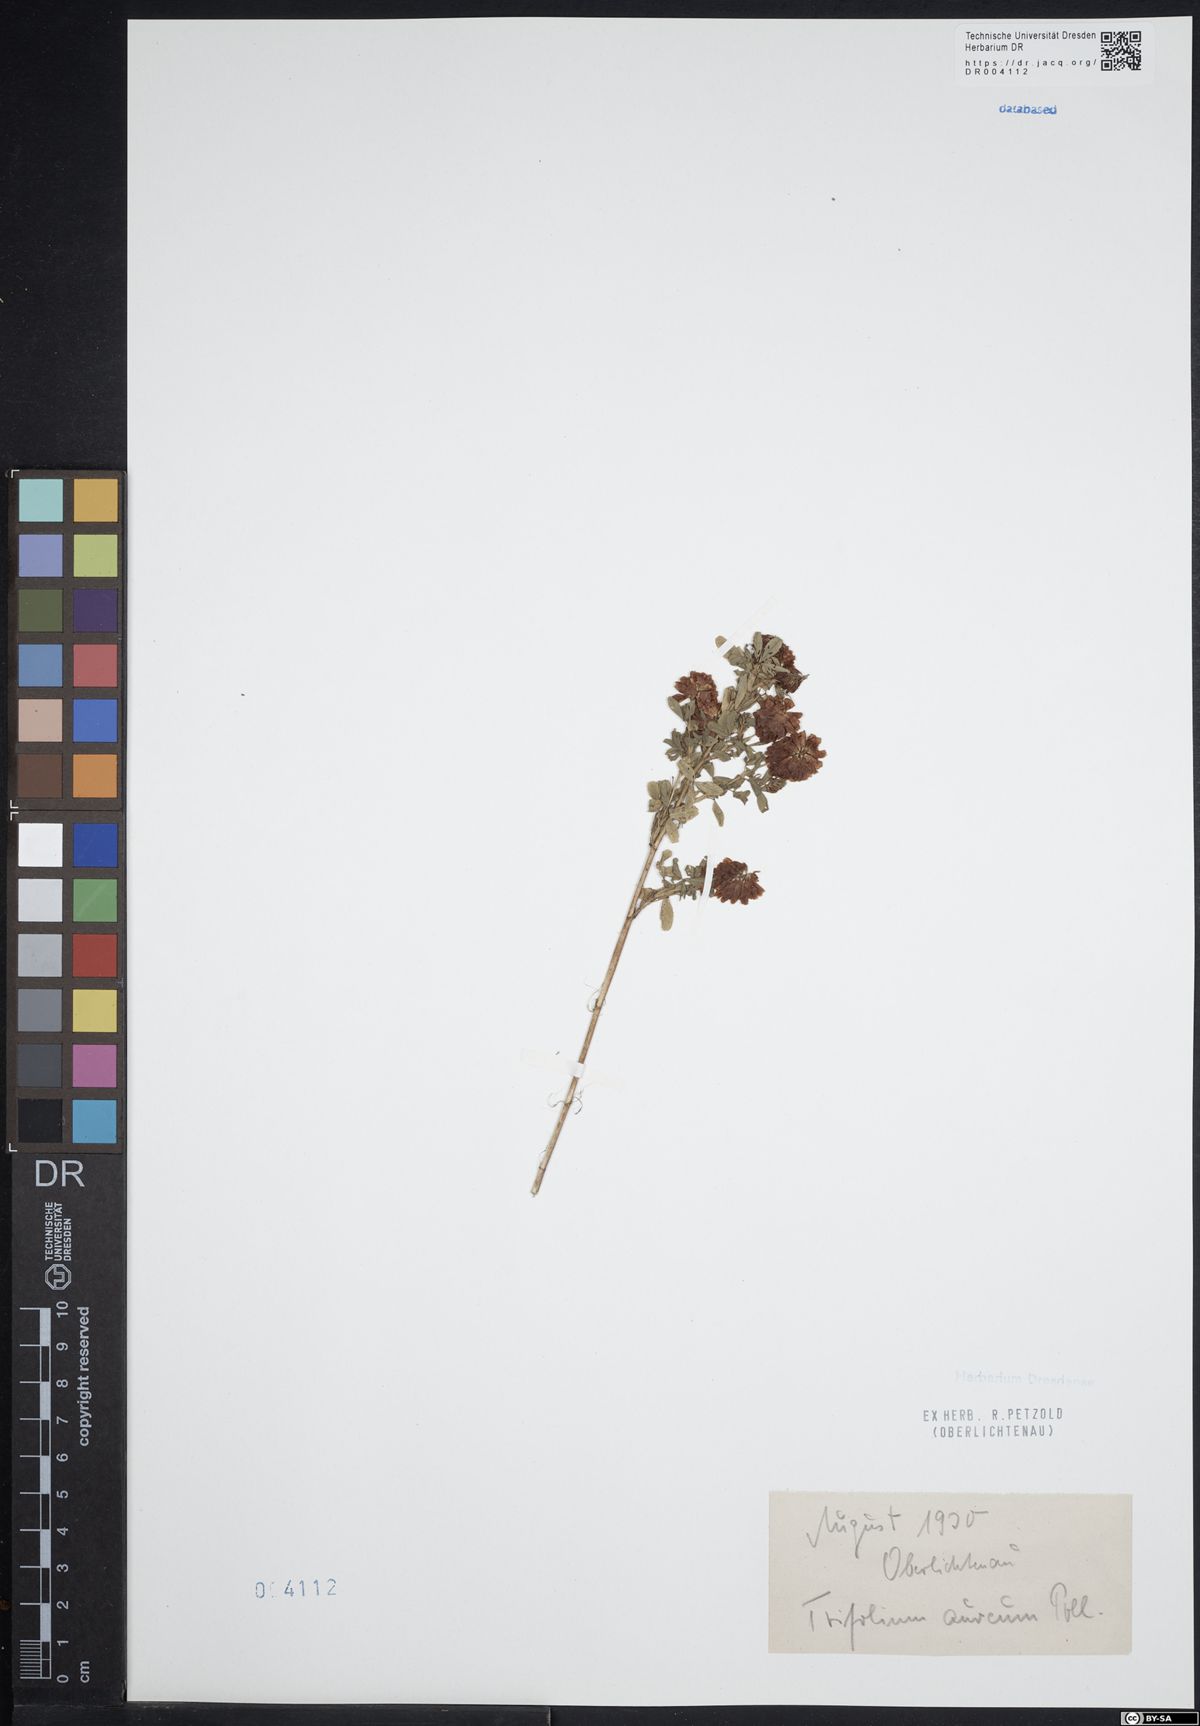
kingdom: Plantae
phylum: Tracheophyta
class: Magnoliopsida
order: Fabales
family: Fabaceae
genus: Trifolium
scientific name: Trifolium aureum
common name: Golden clover
